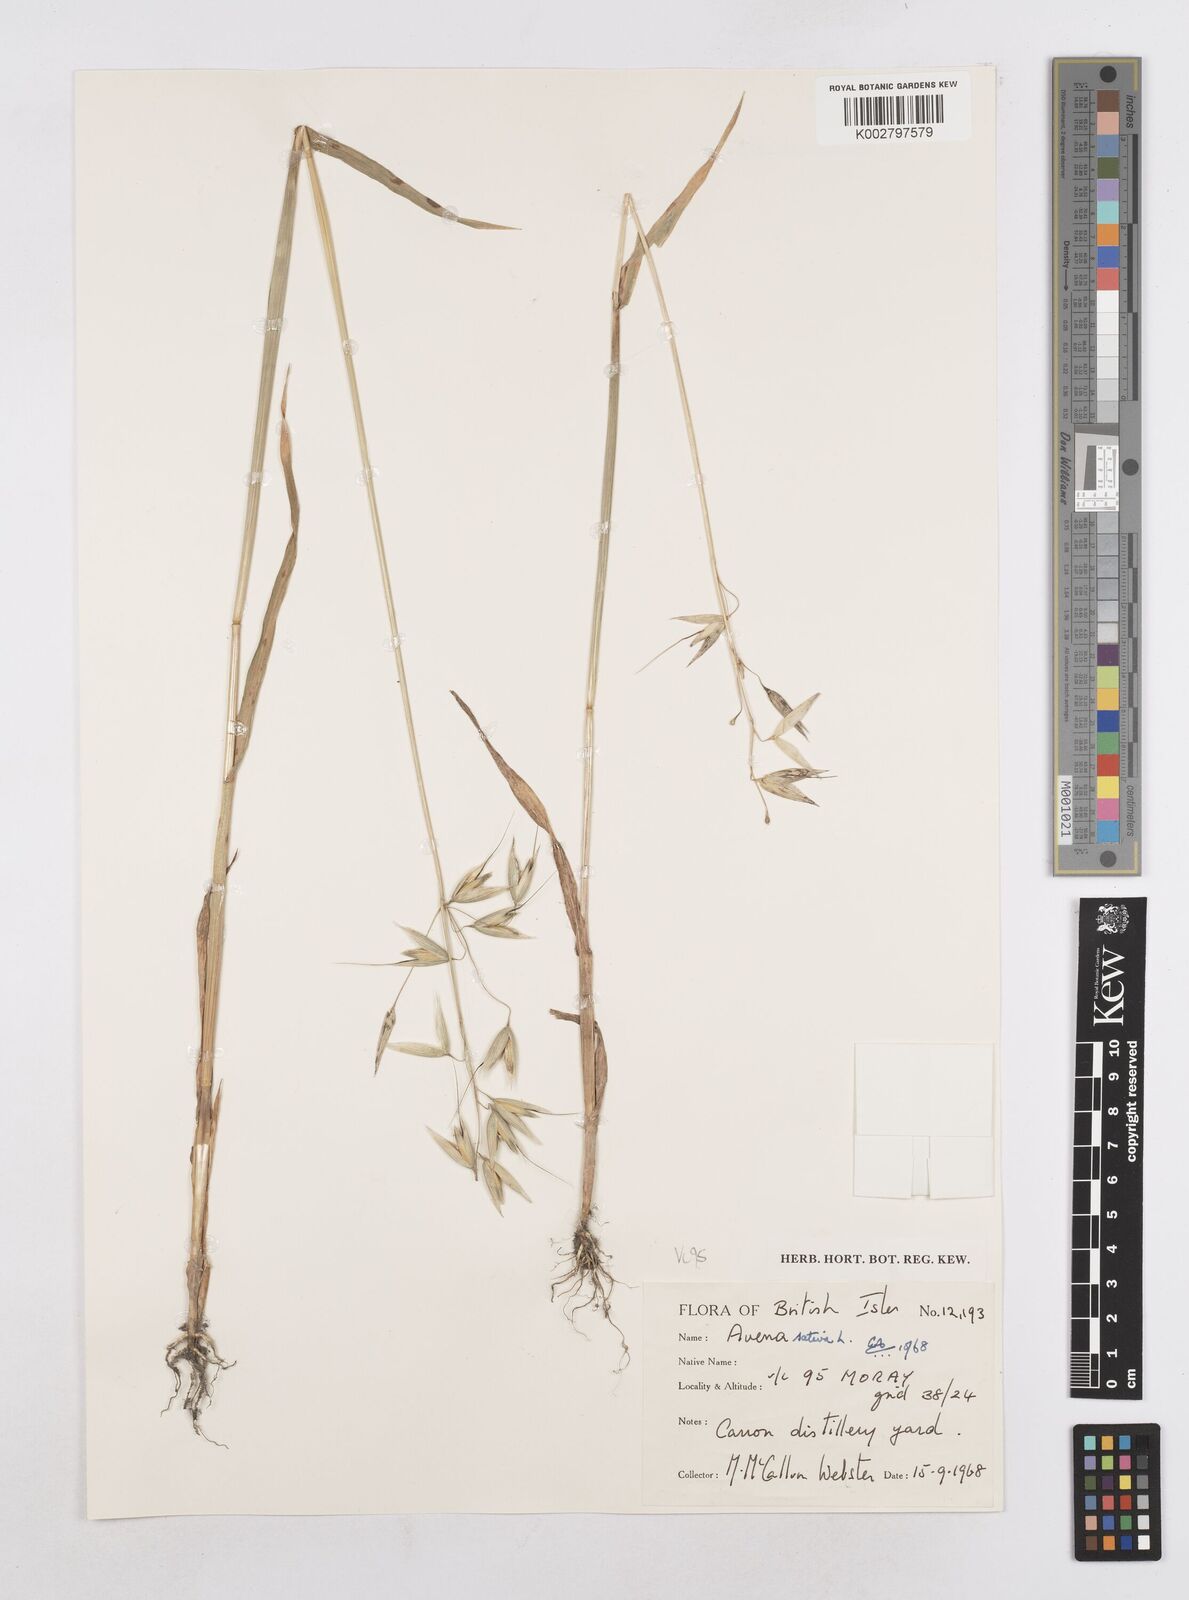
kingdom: Plantae
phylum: Tracheophyta
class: Liliopsida
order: Poales
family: Poaceae
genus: Avena
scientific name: Avena sativa
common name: Oat
